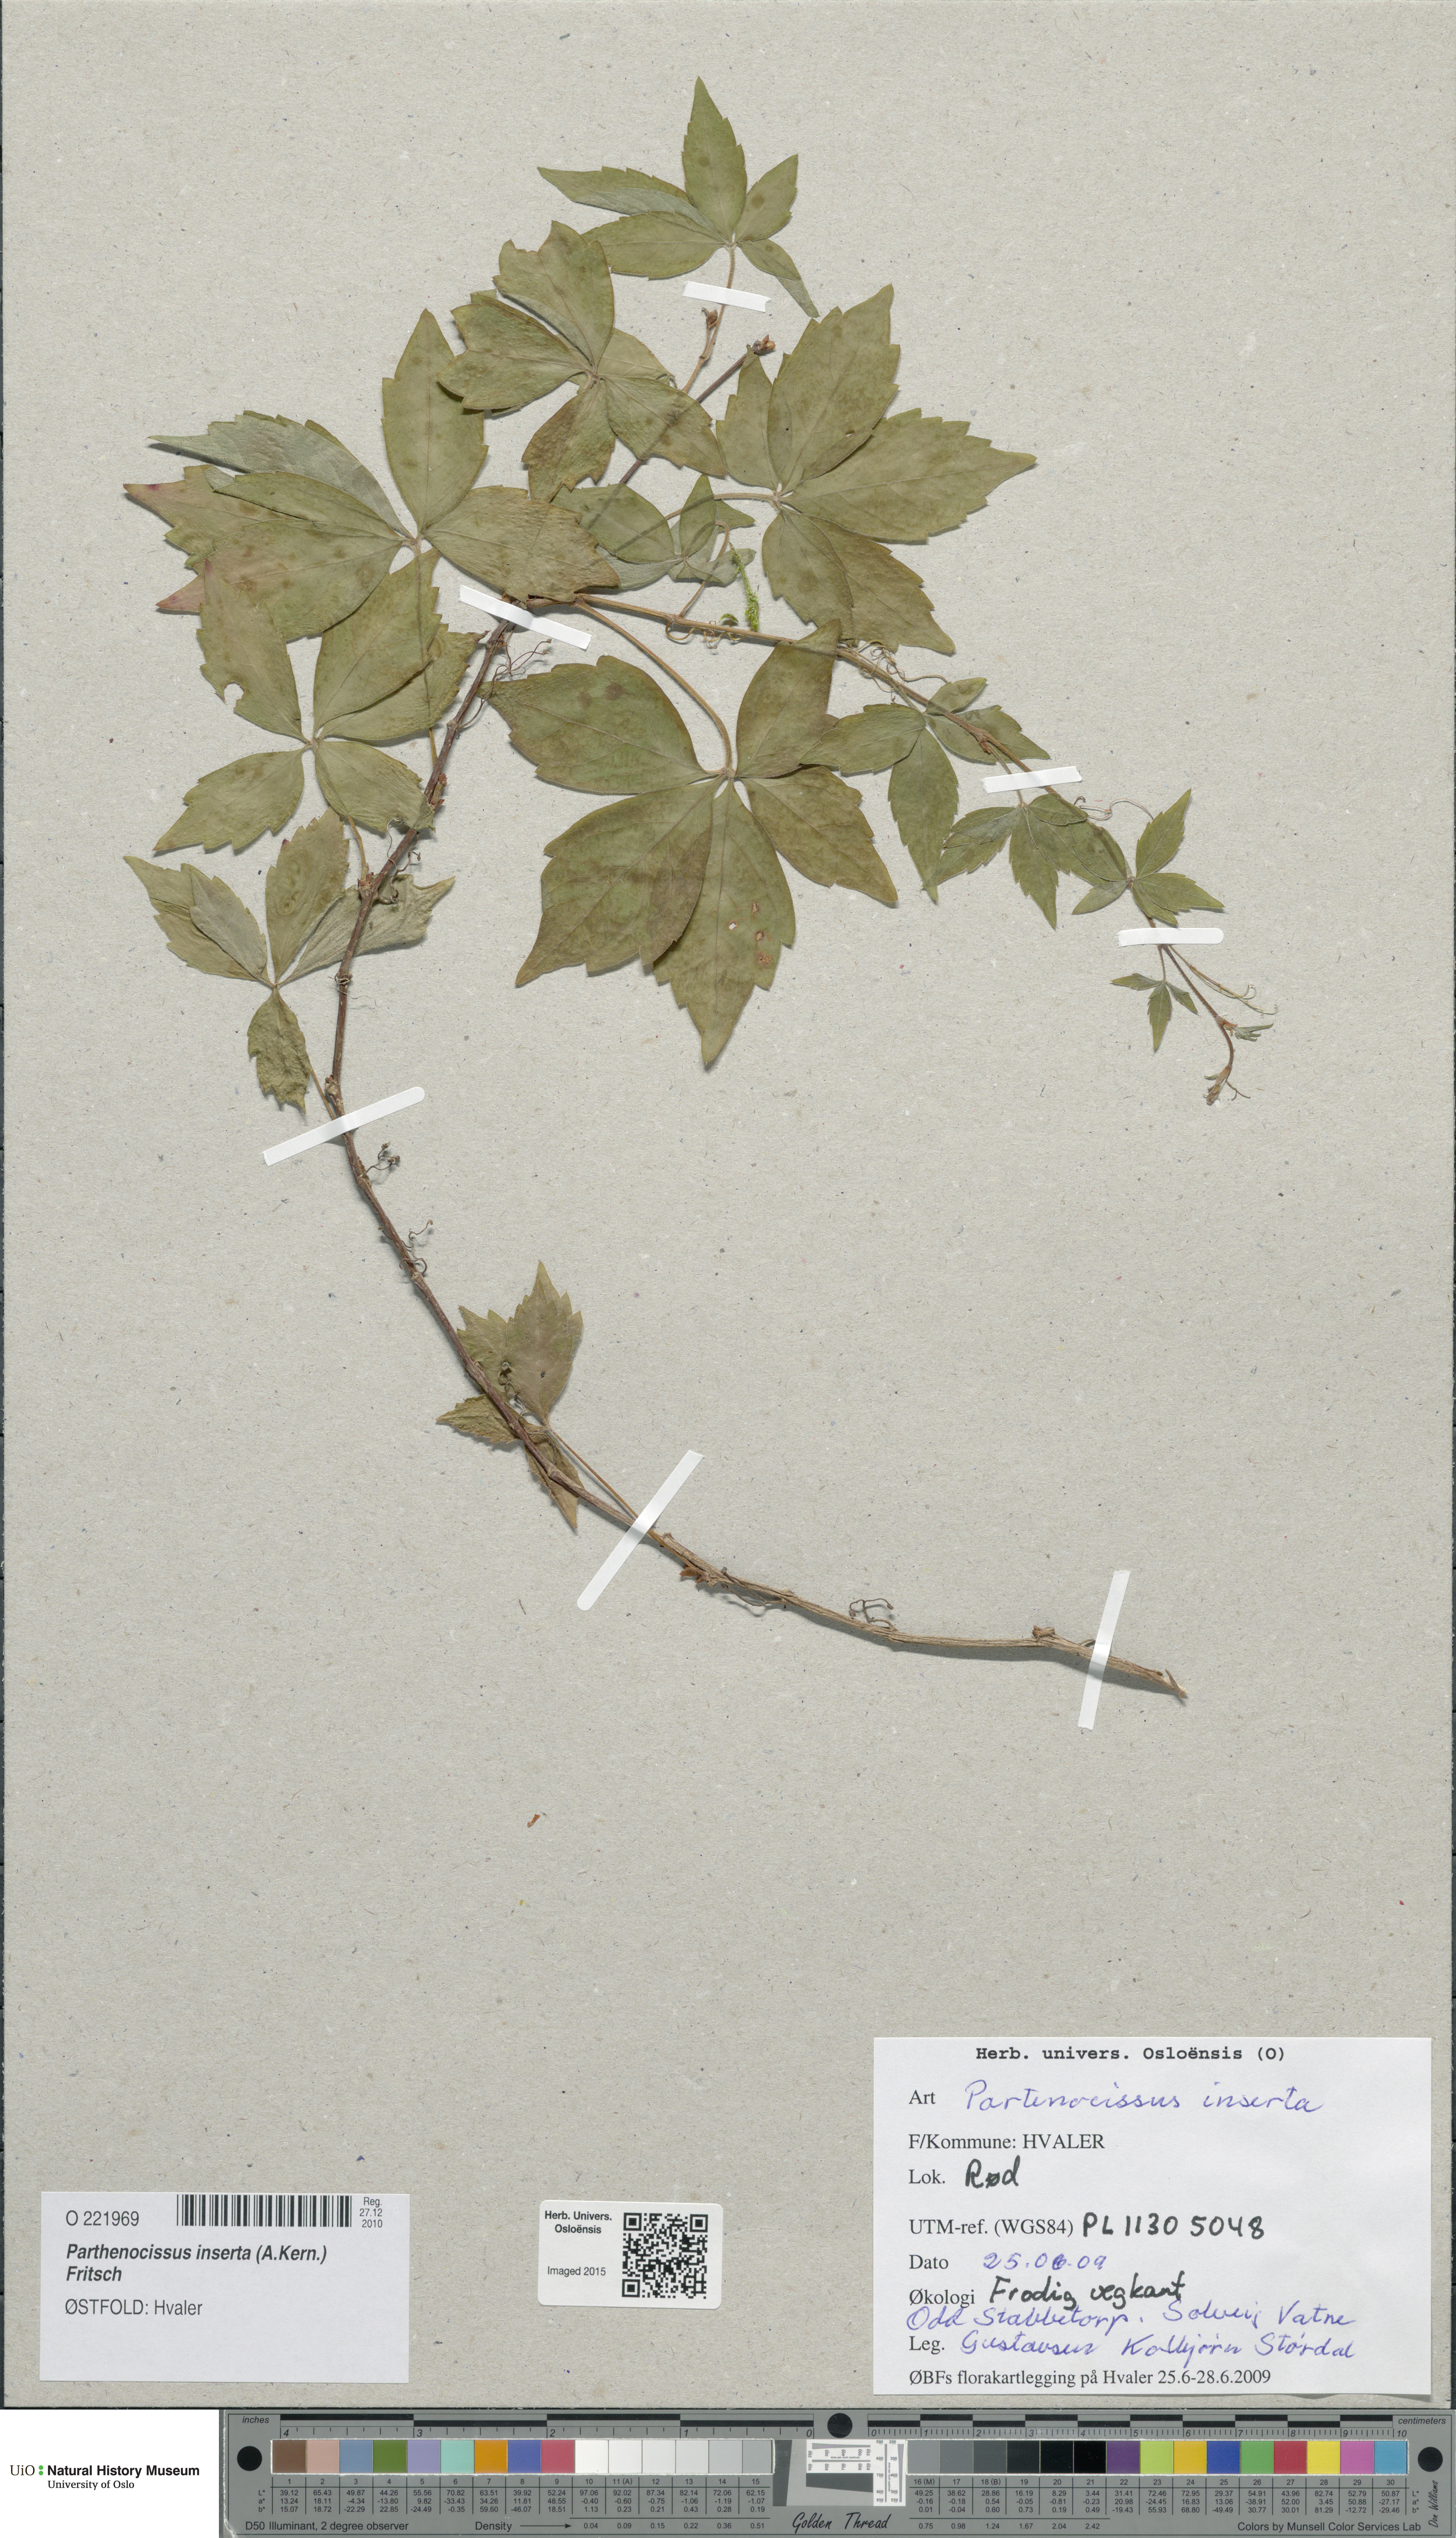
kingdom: Plantae
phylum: Tracheophyta
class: Magnoliopsida
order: Vitales
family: Vitaceae
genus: Parthenocissus
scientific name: Parthenocissus inserta
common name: False virginia-creeper
